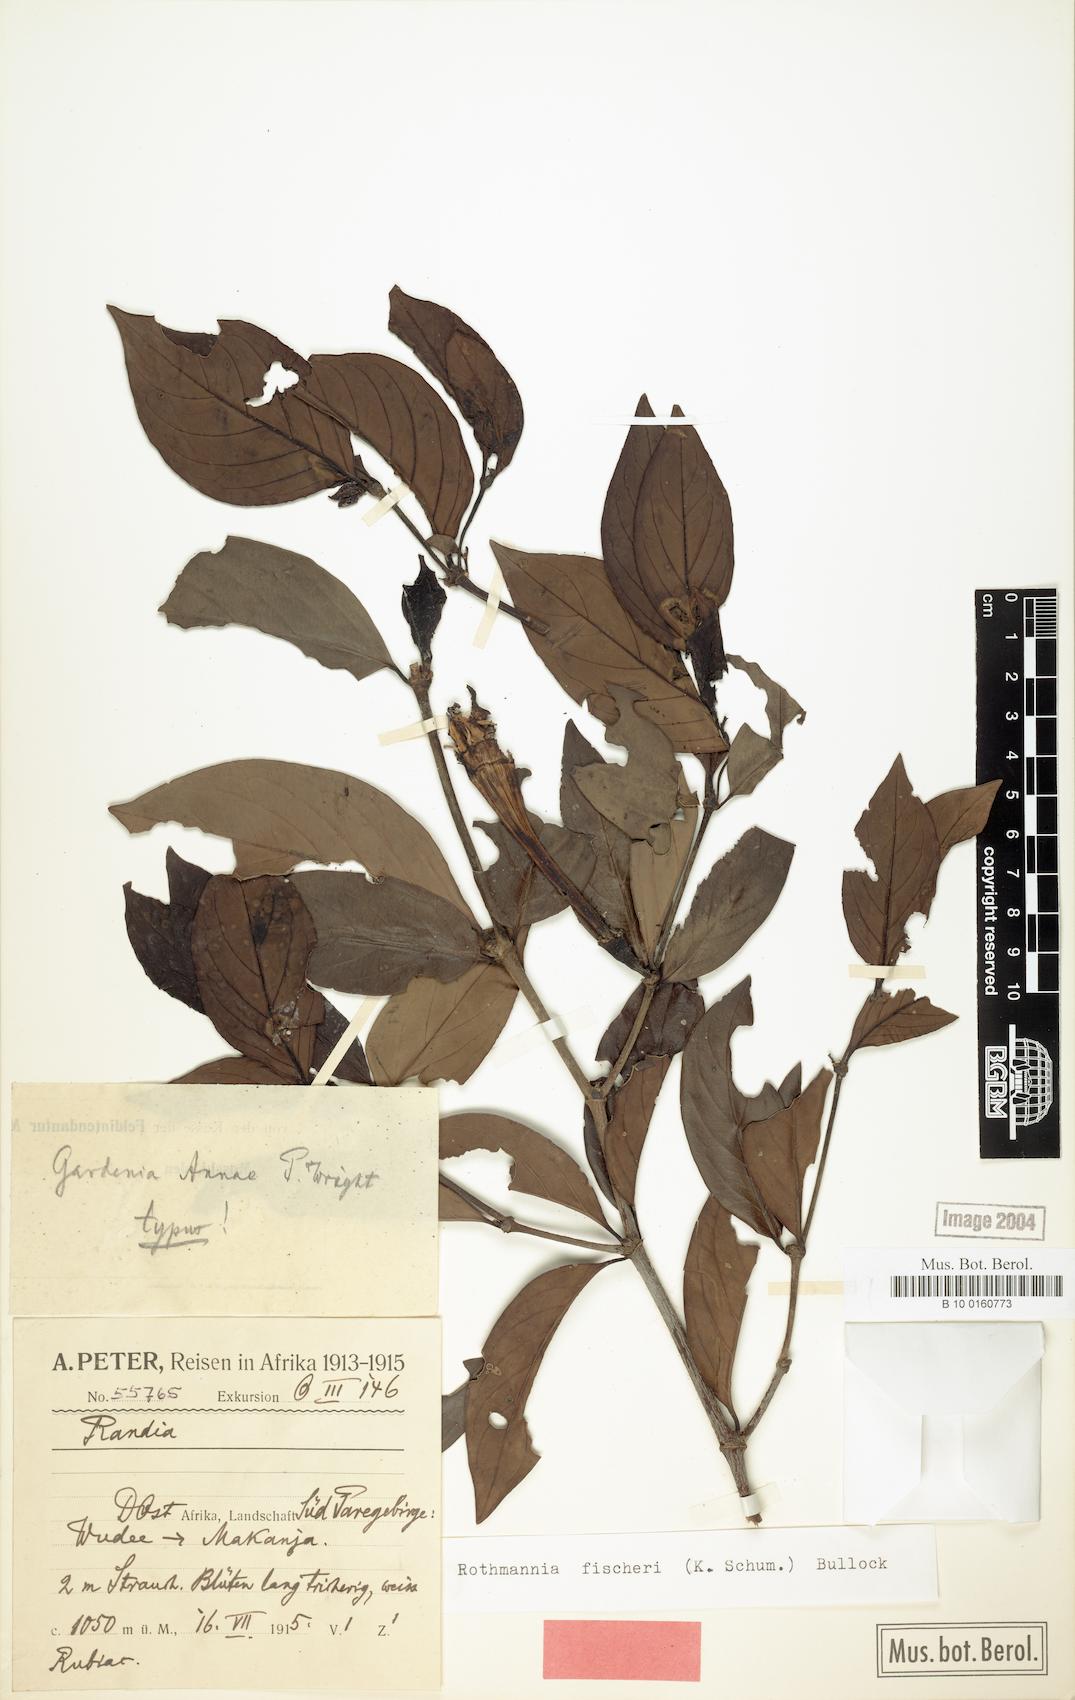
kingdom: Plantae
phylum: Tracheophyta
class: Magnoliopsida
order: Gentianales
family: Rubiaceae
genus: Rothmannia
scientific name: Rothmannia fischeri
